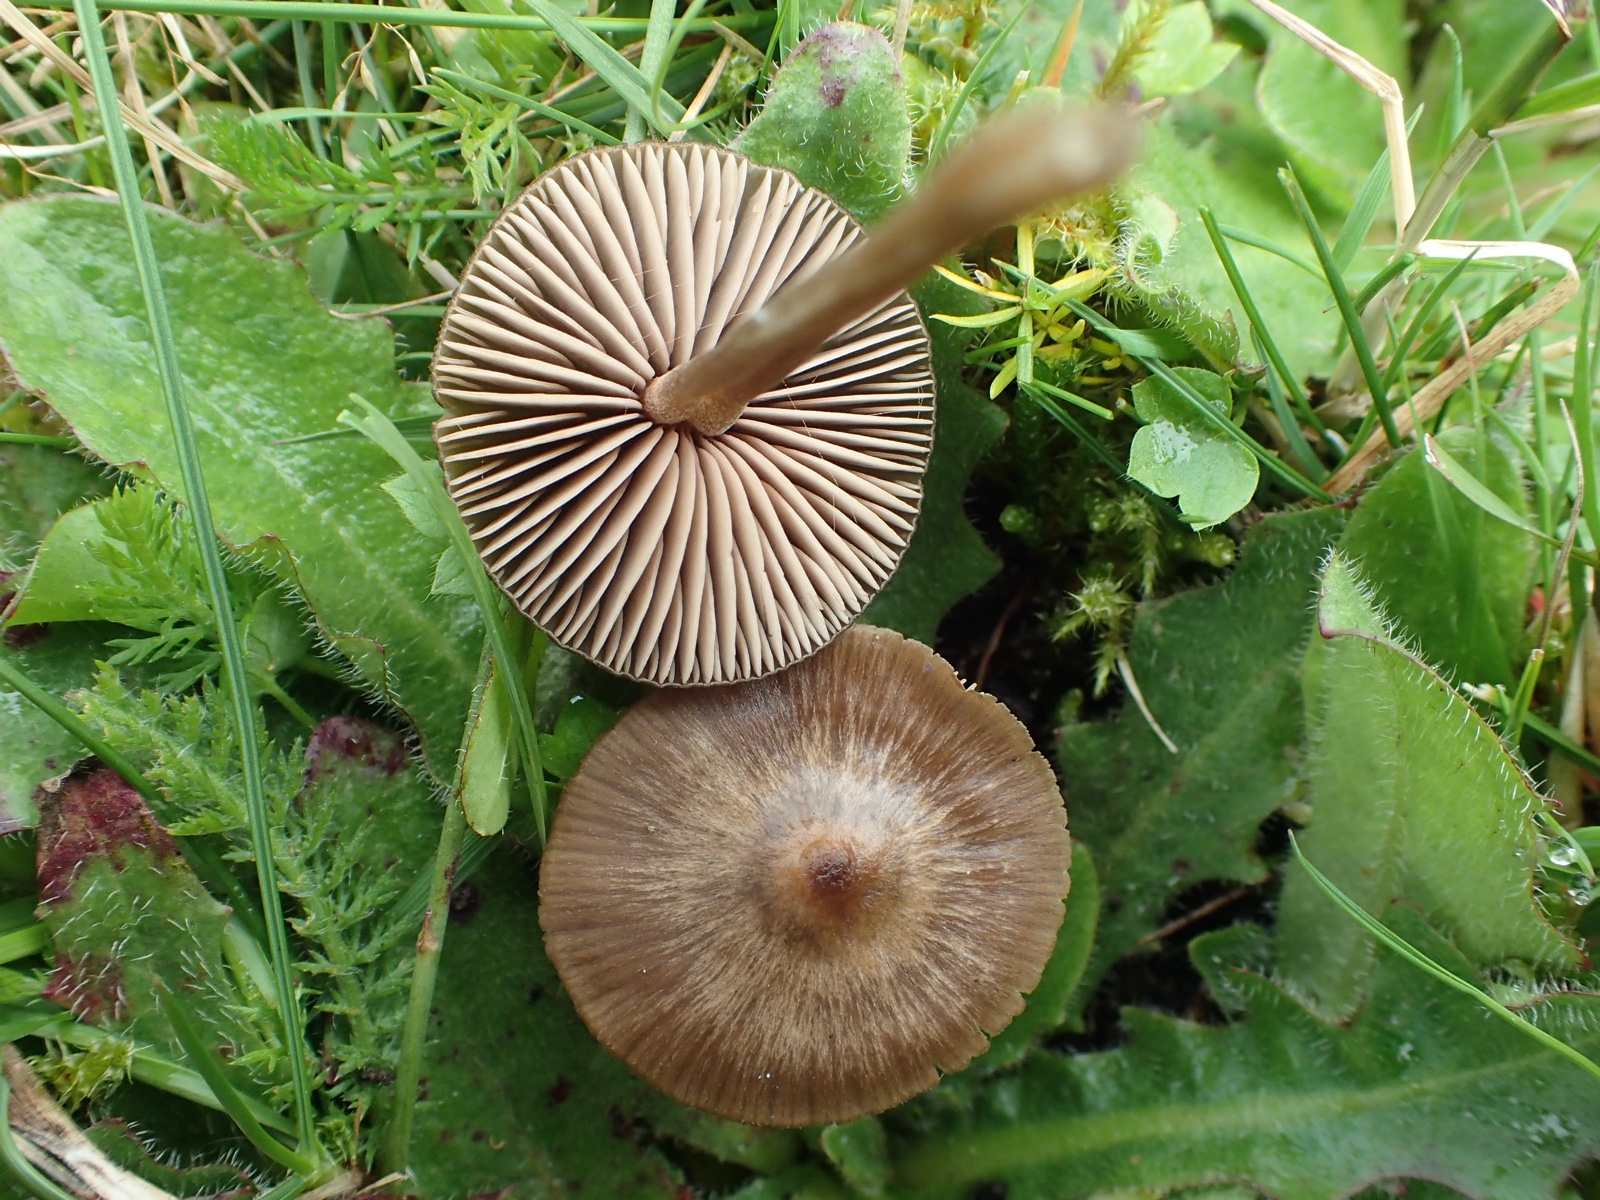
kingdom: Fungi
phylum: Basidiomycota
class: Agaricomycetes
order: Agaricales
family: Entolomataceae
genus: Entoloma
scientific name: Entoloma
